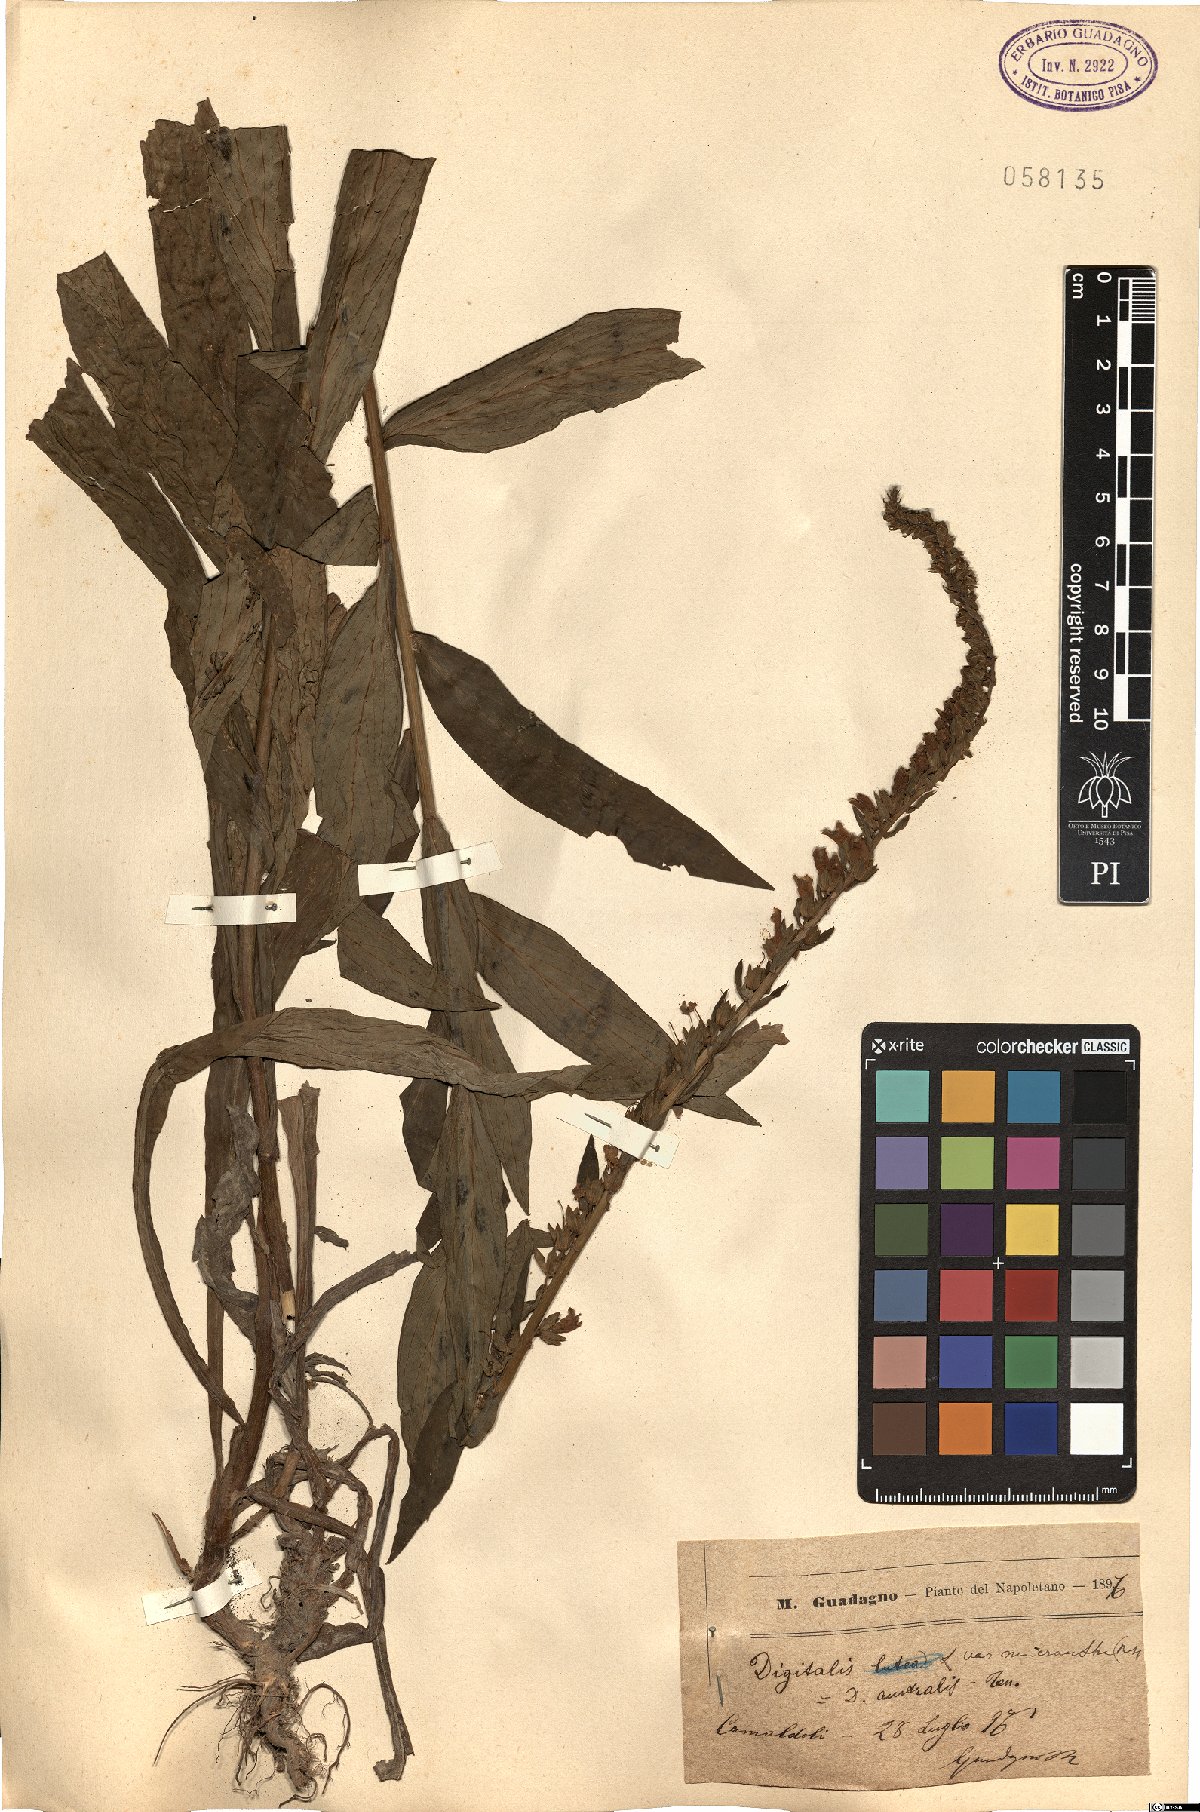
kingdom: Plantae
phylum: Tracheophyta
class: Magnoliopsida
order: Lamiales
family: Plantaginaceae
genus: Digitalis
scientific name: Digitalis lutea
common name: Straw foxglove
